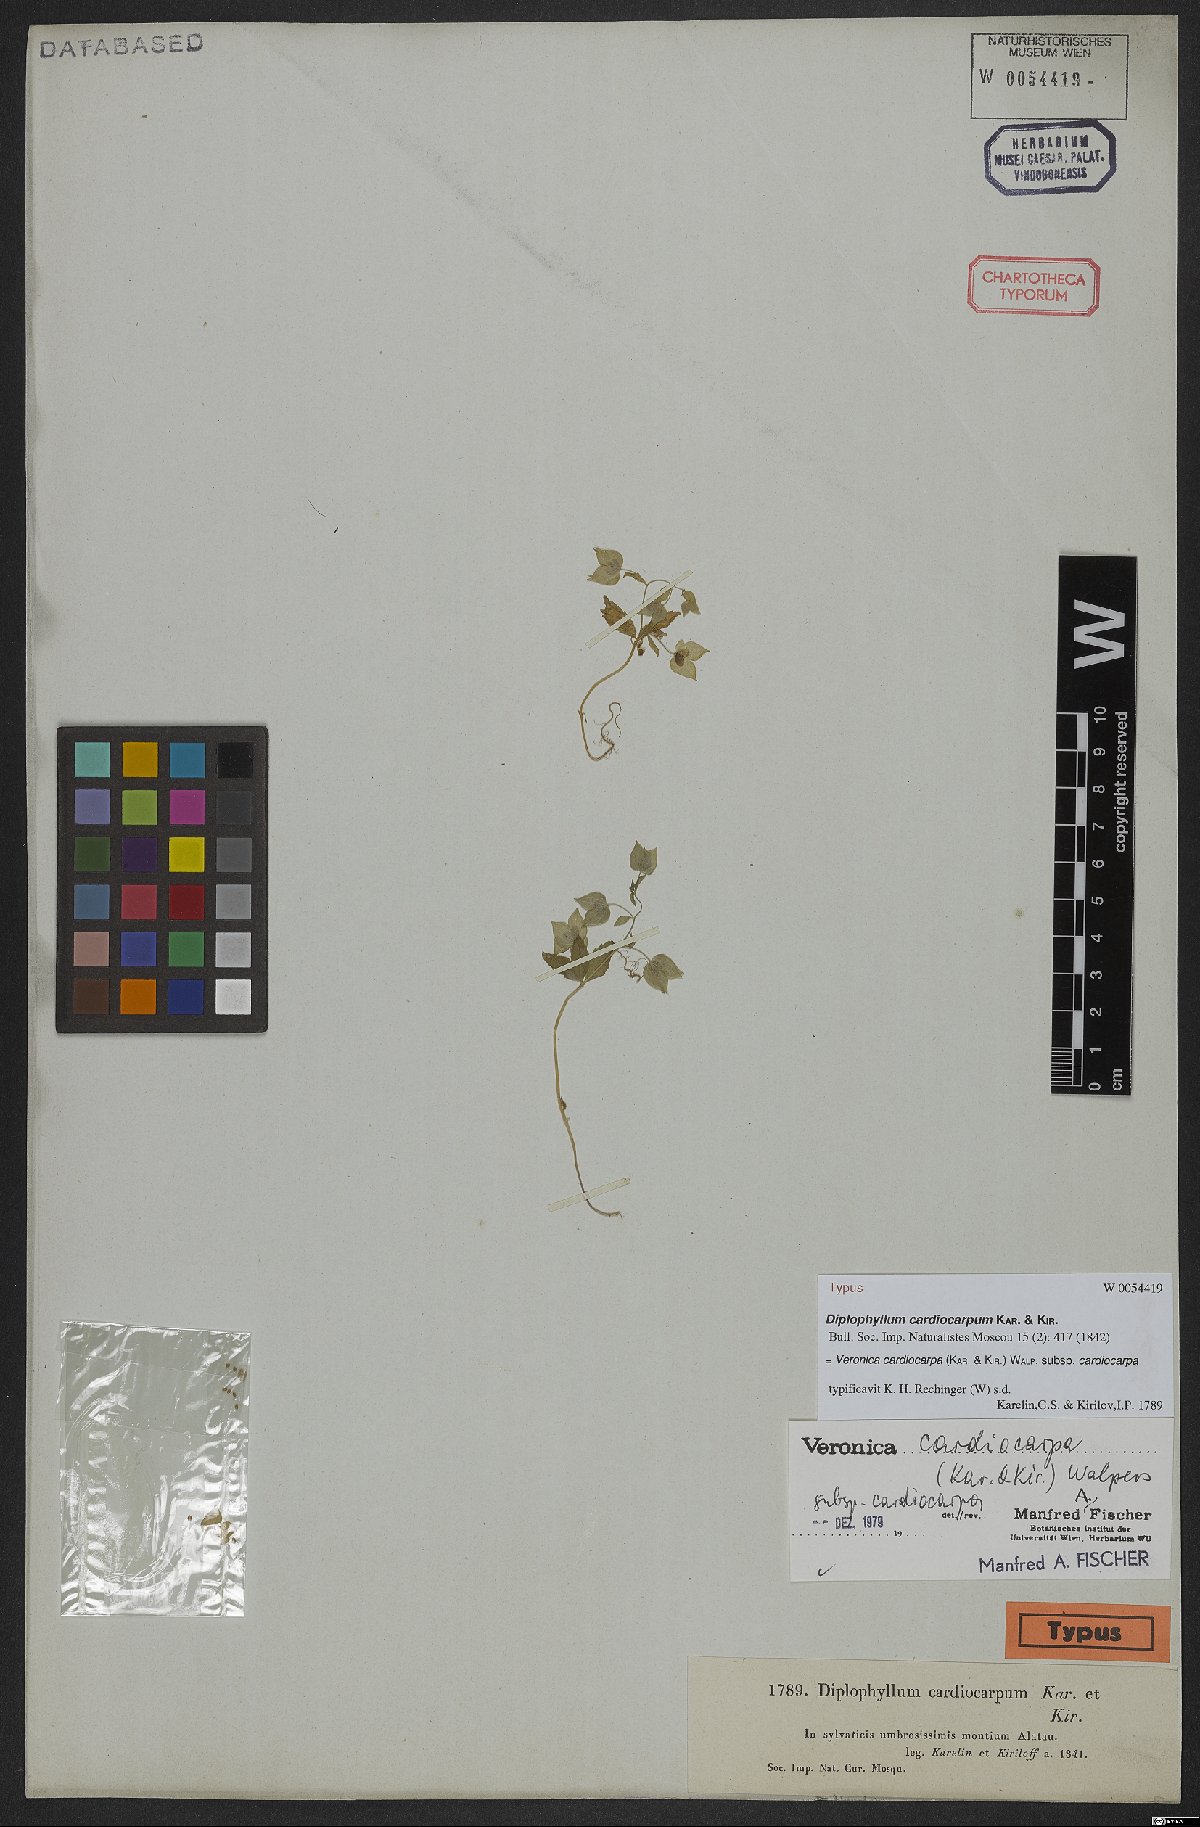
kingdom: Plantae
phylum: Tracheophyta
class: Magnoliopsida
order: Lamiales
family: Plantaginaceae
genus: Veronica
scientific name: Veronica cardiocarpa
